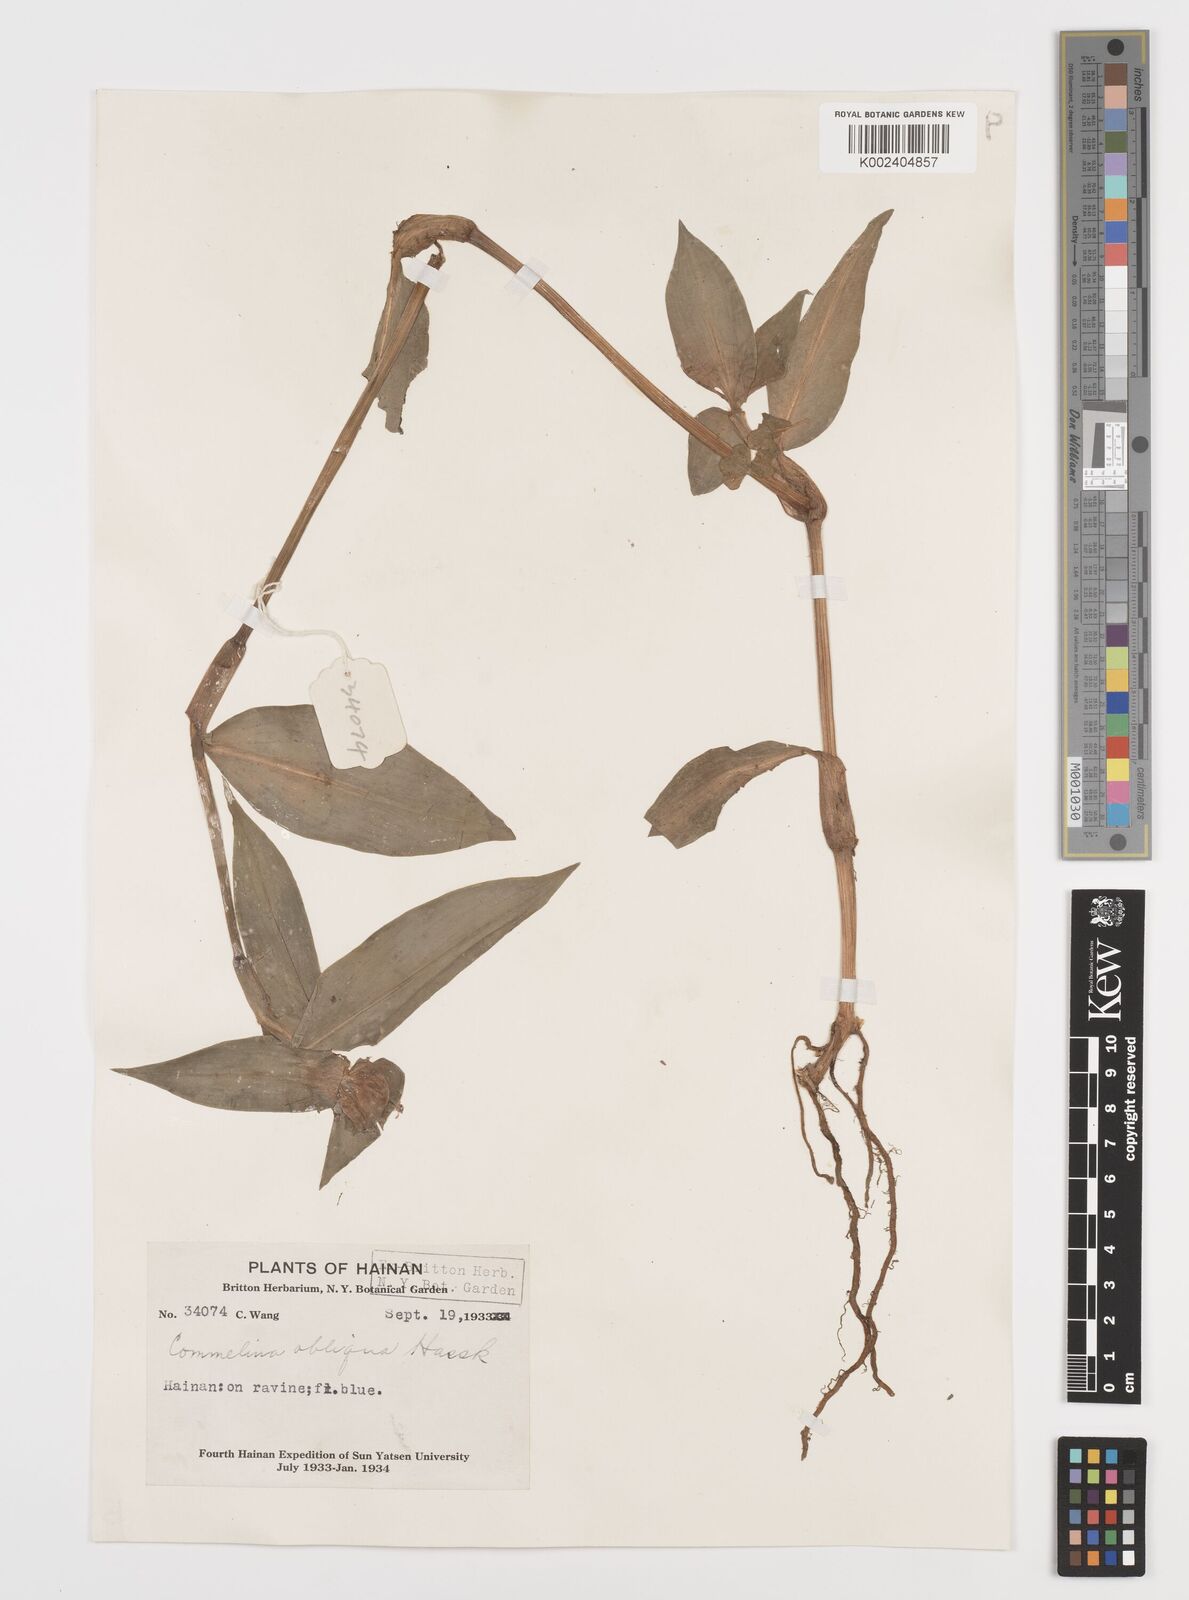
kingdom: Plantae
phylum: Tracheophyta
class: Liliopsida
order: Commelinales
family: Commelinaceae
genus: Commelina
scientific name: Commelina obliqua
